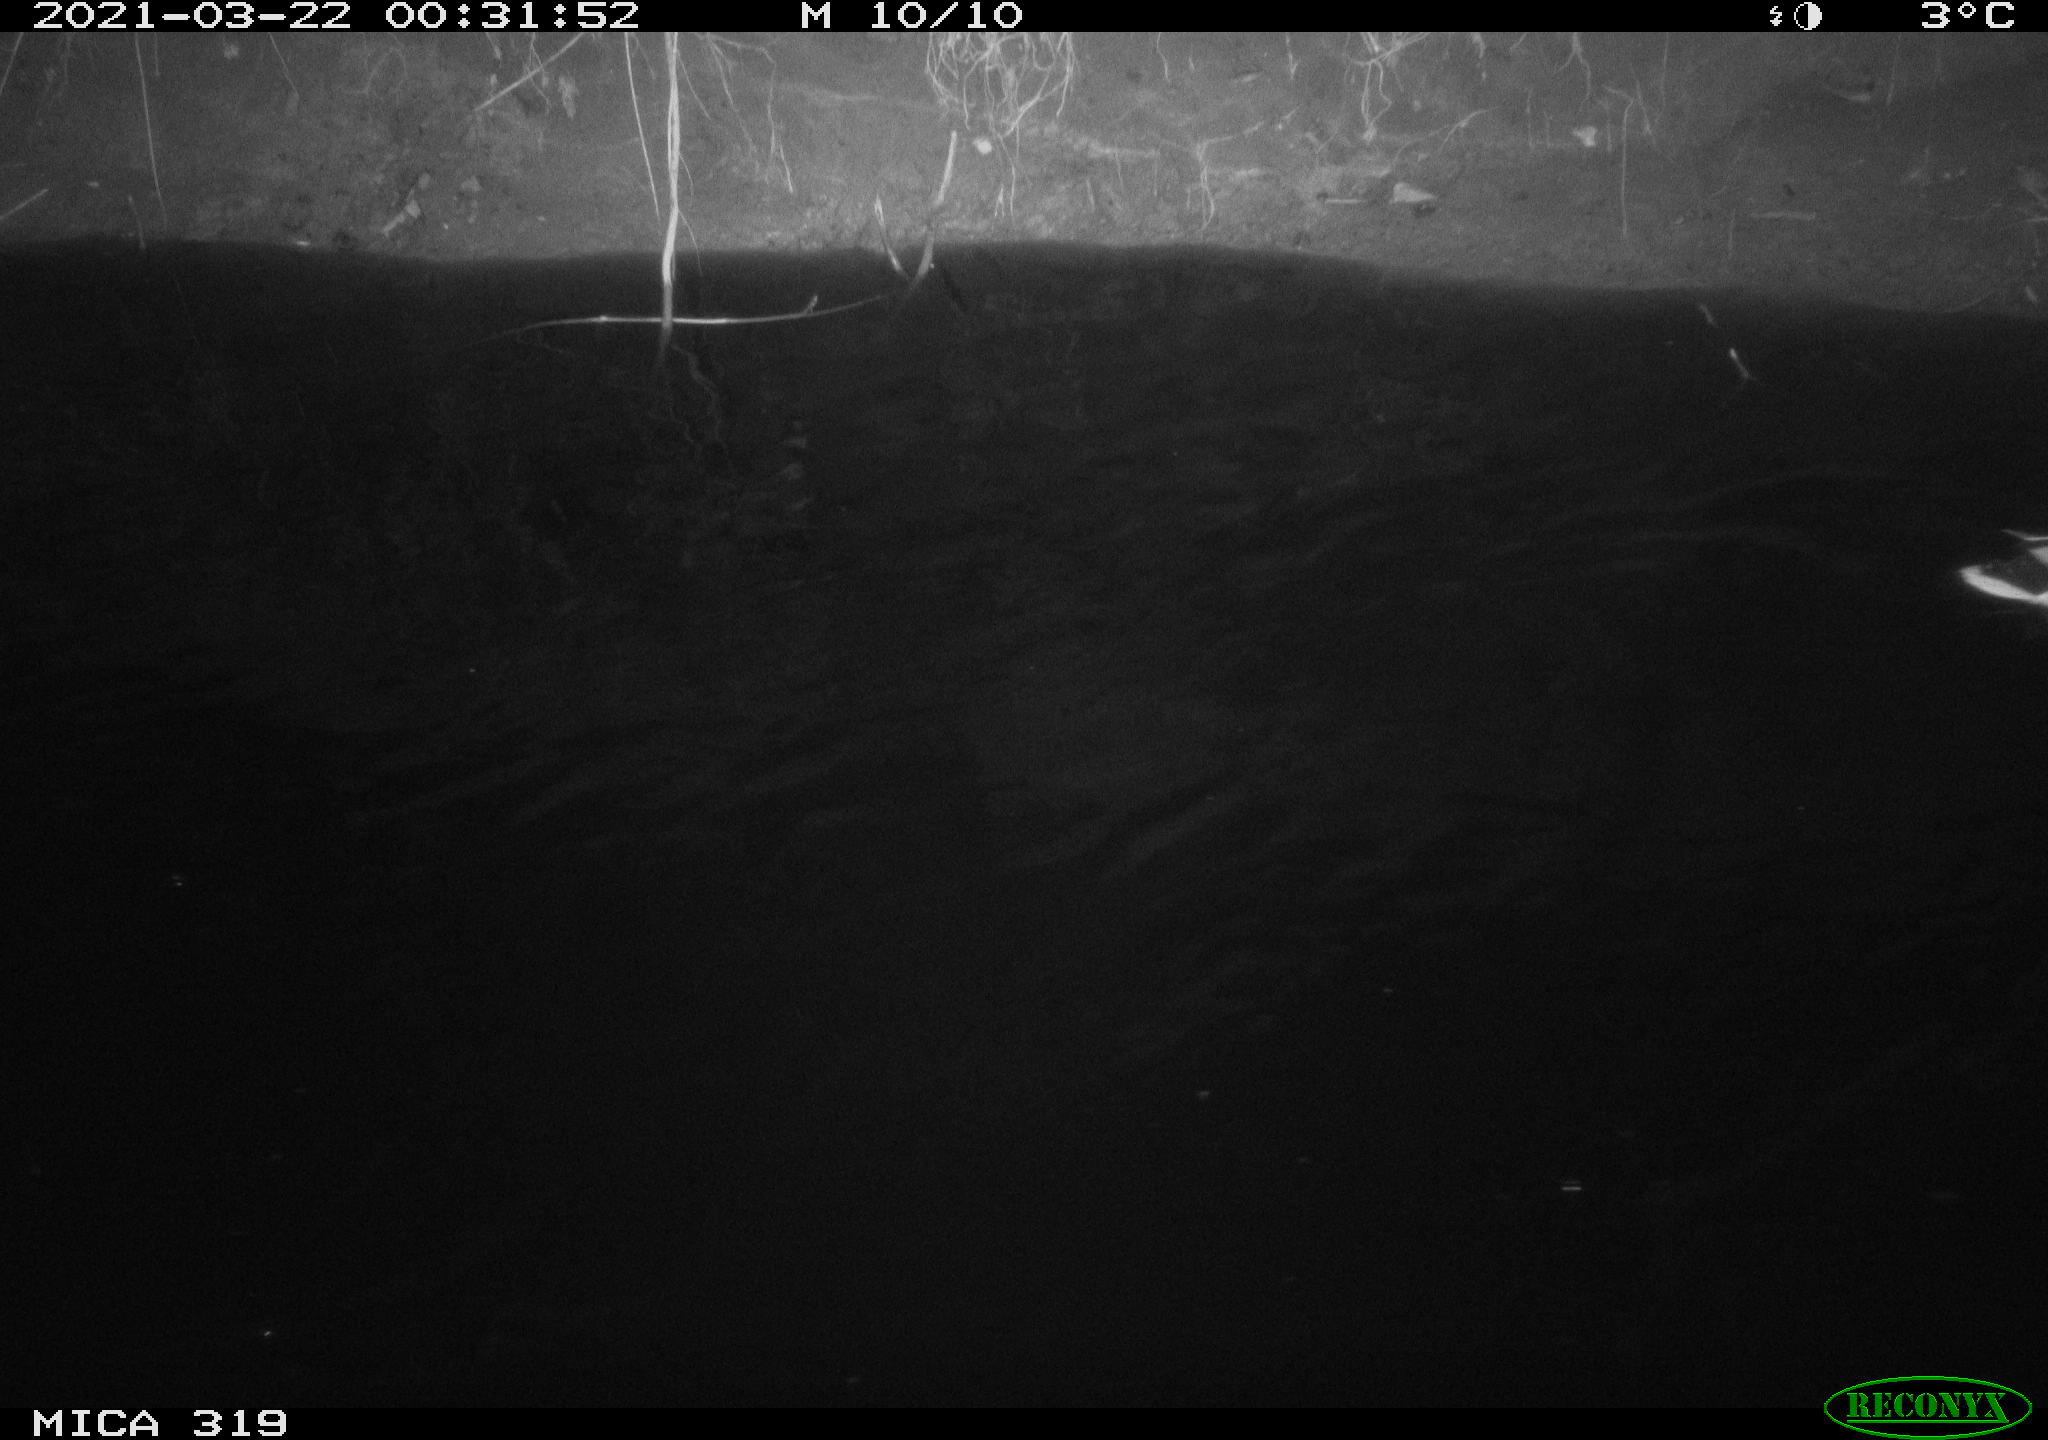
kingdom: Animalia
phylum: Chordata
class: Aves
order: Anseriformes
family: Anatidae
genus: Anas
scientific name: Anas platyrhynchos
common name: Mallard
